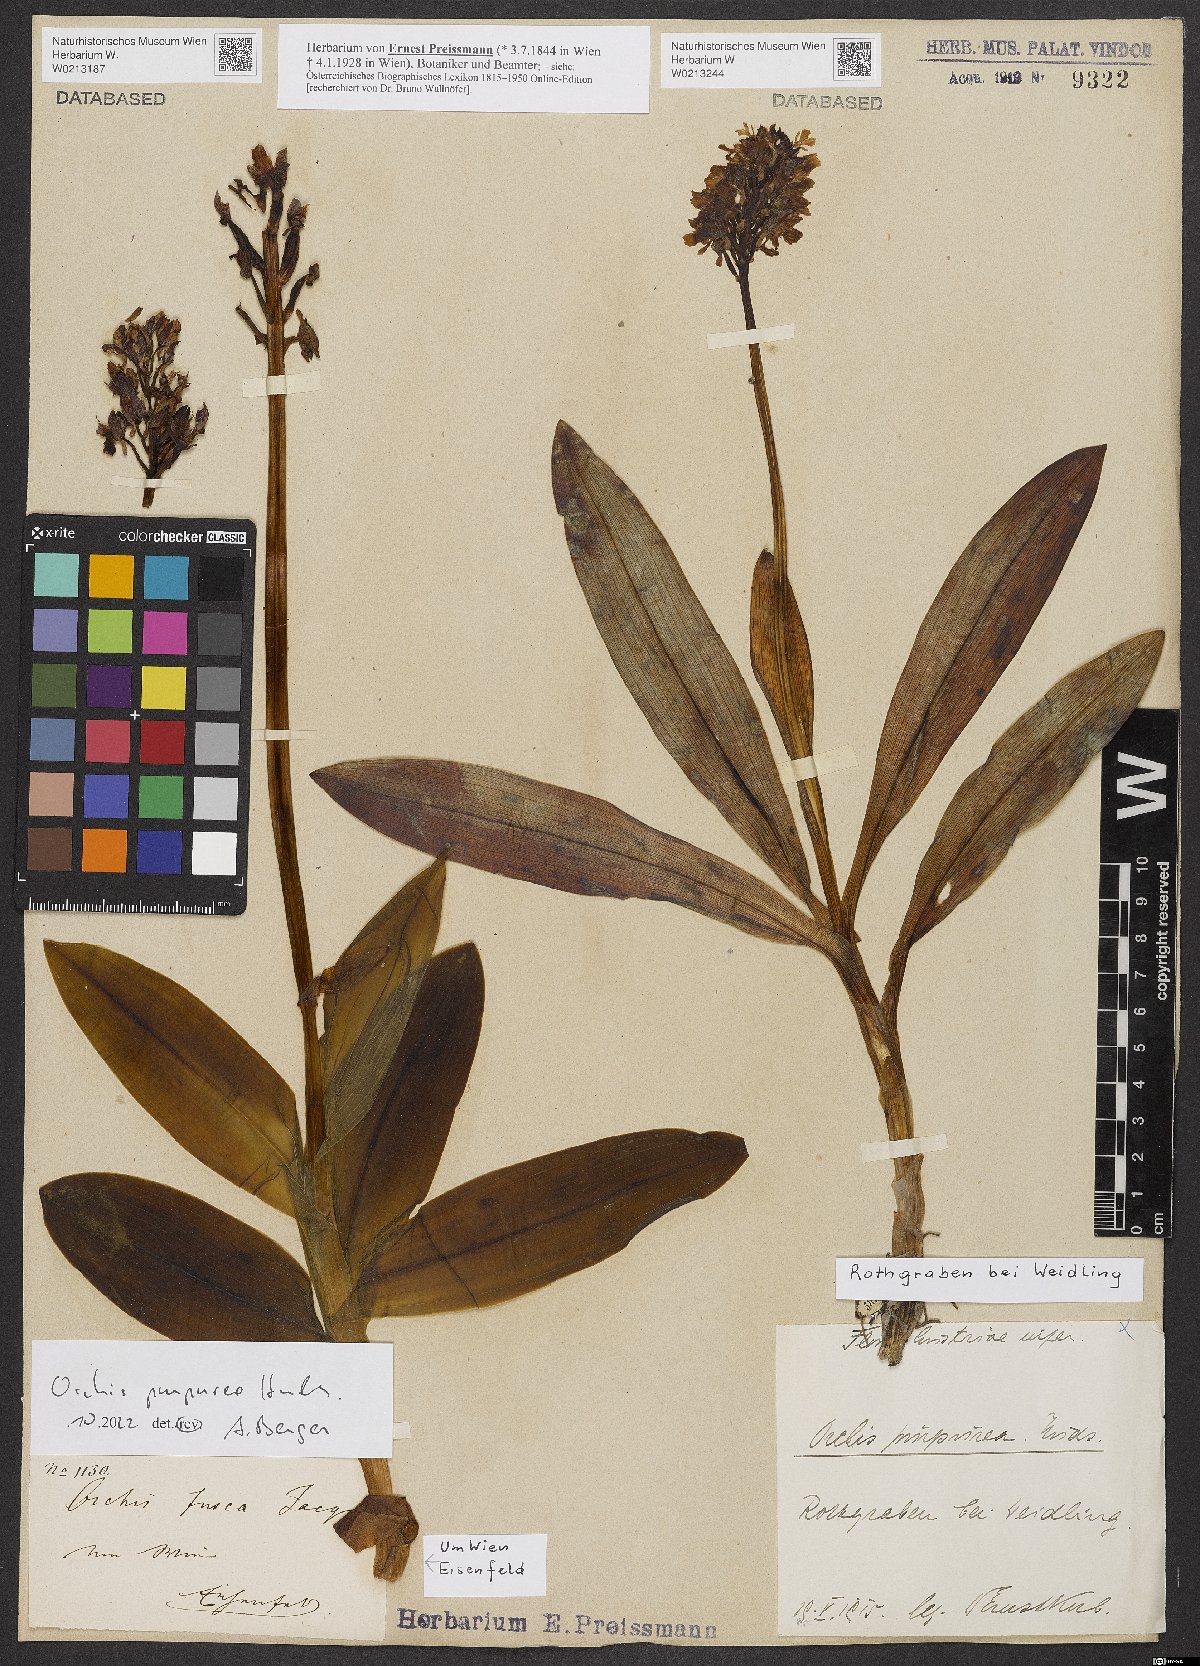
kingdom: Plantae
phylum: Tracheophyta
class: Liliopsida
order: Asparagales
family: Orchidaceae
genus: Orchis
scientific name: Orchis purpurea
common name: Lady orchid
